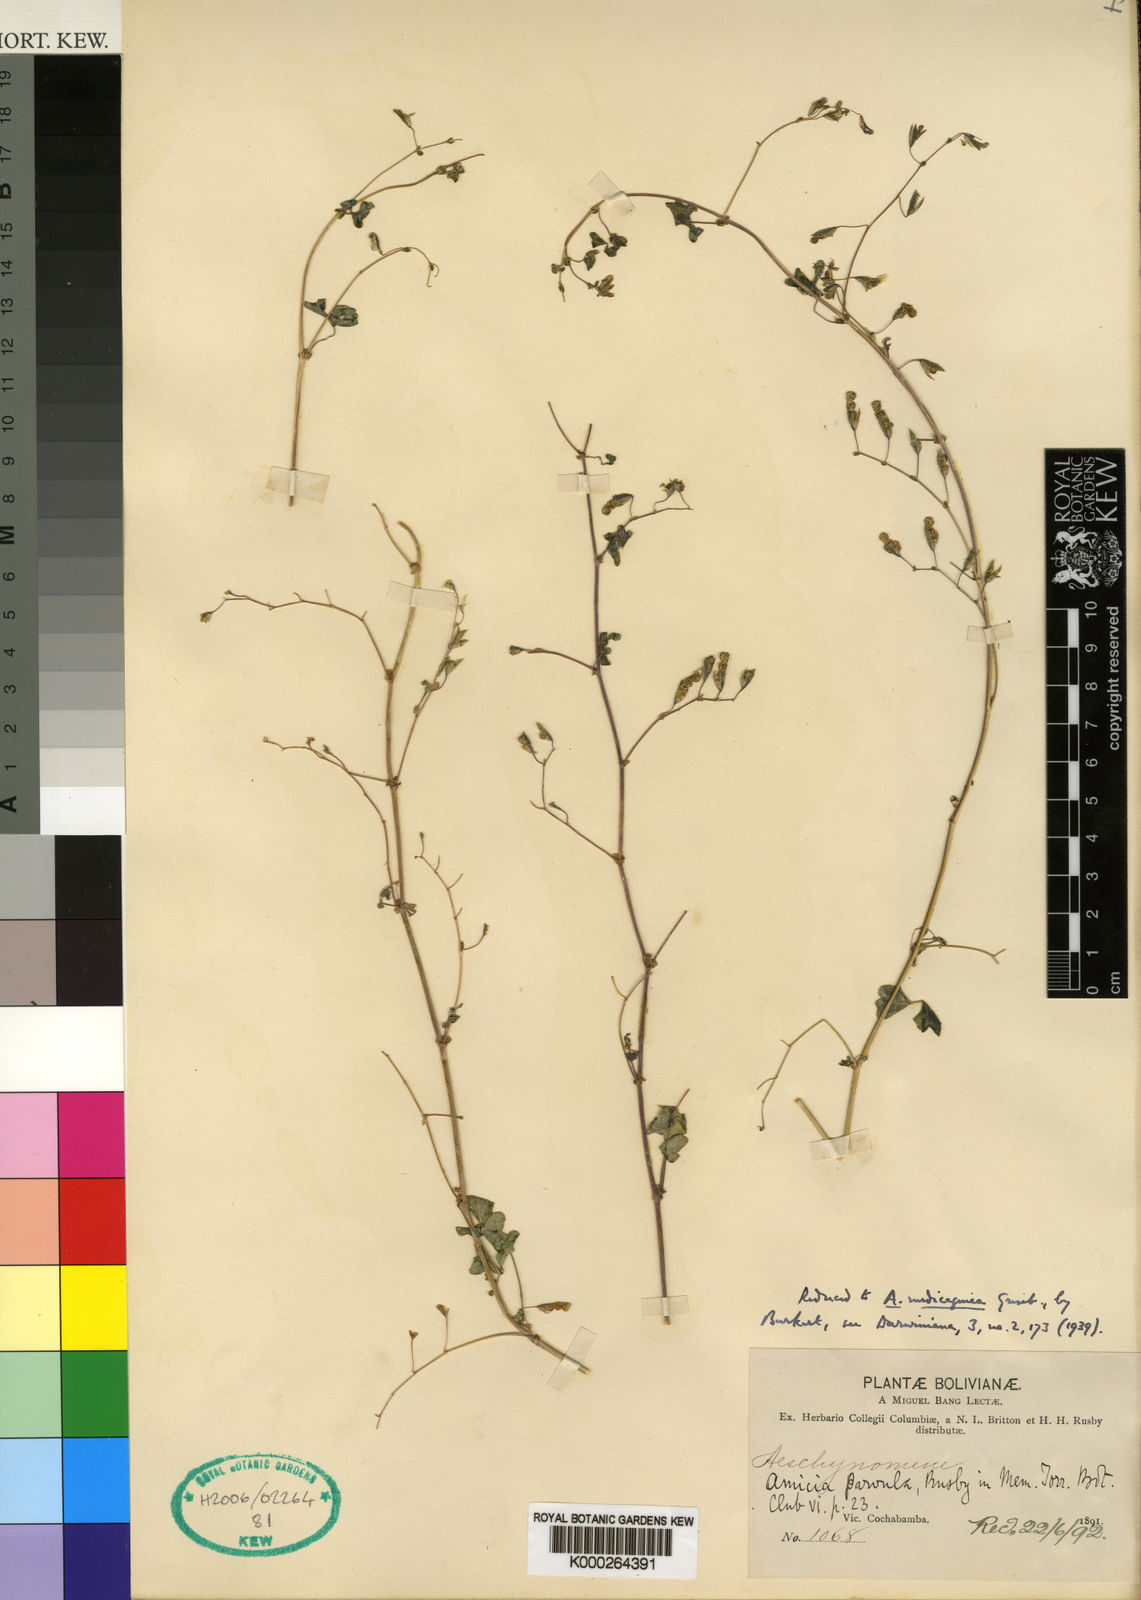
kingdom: Plantae
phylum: Tracheophyta
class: Magnoliopsida
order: Fabales
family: Fabaceae
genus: Amicia
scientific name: Amicia medicaginea
